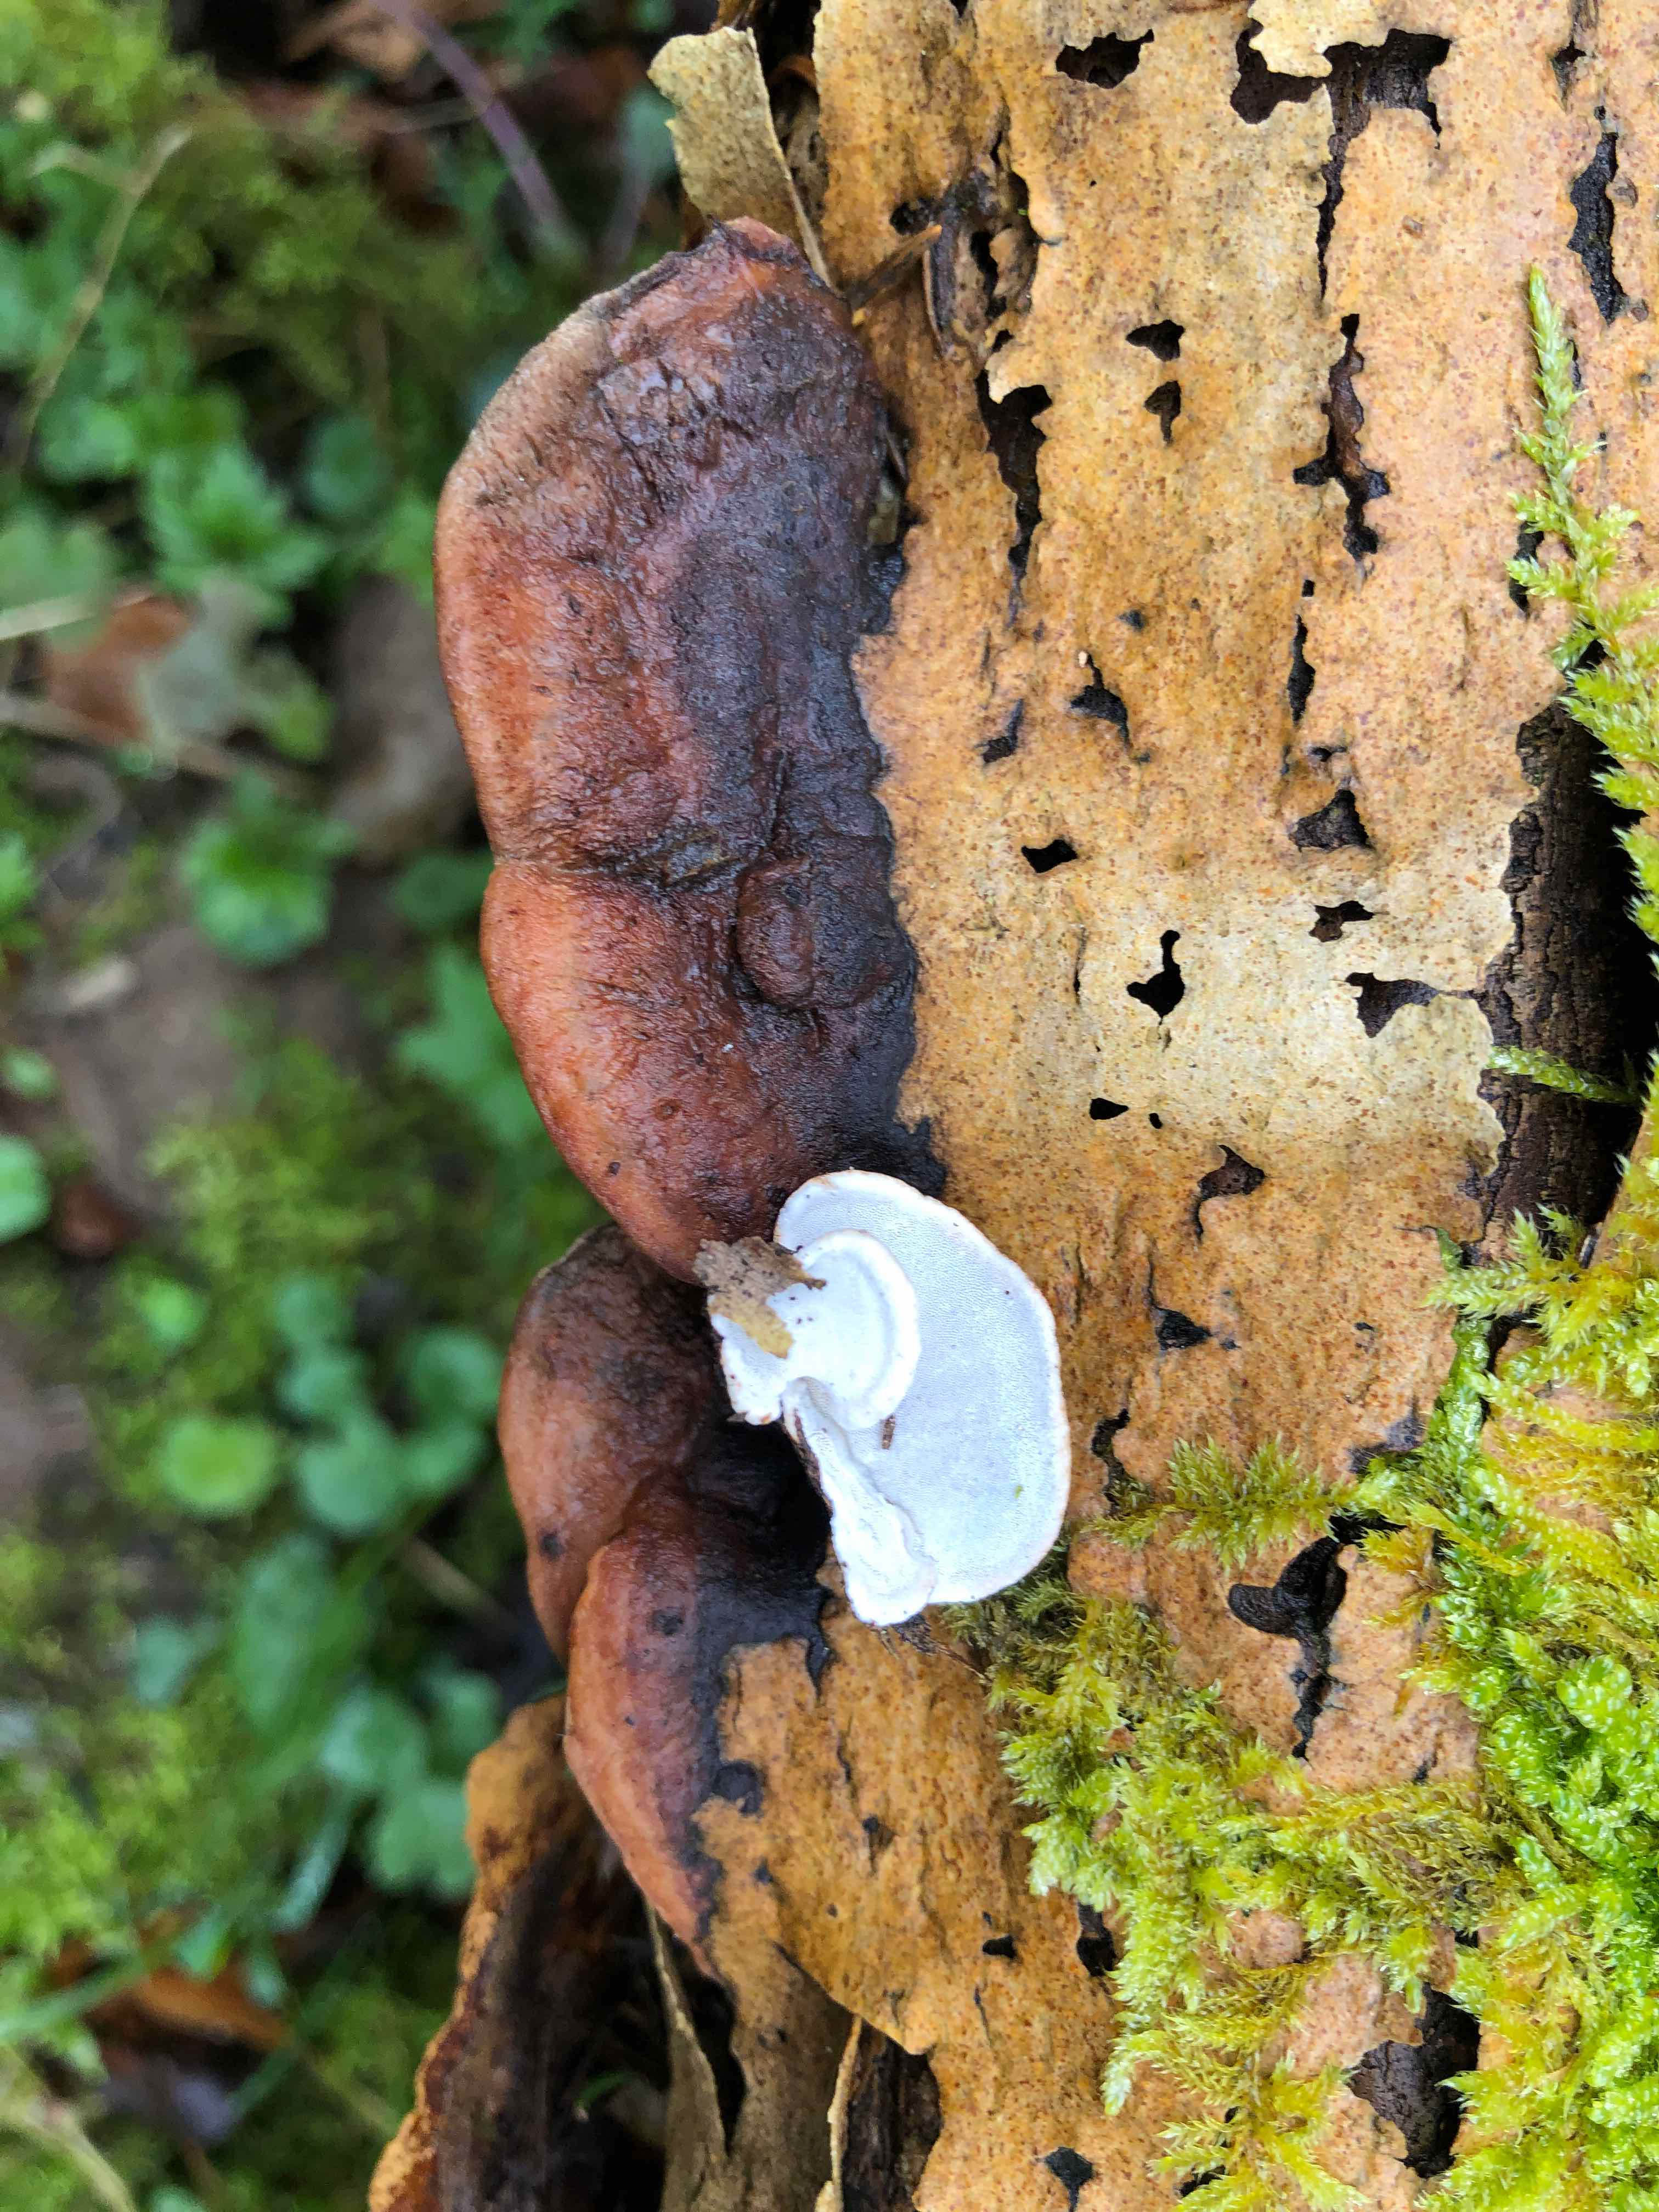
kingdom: Fungi
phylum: Basidiomycota
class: Agaricomycetes
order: Polyporales
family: Incrustoporiaceae
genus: Skeletocutis
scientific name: Skeletocutis nemoralis
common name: stor krystalporesvamp
